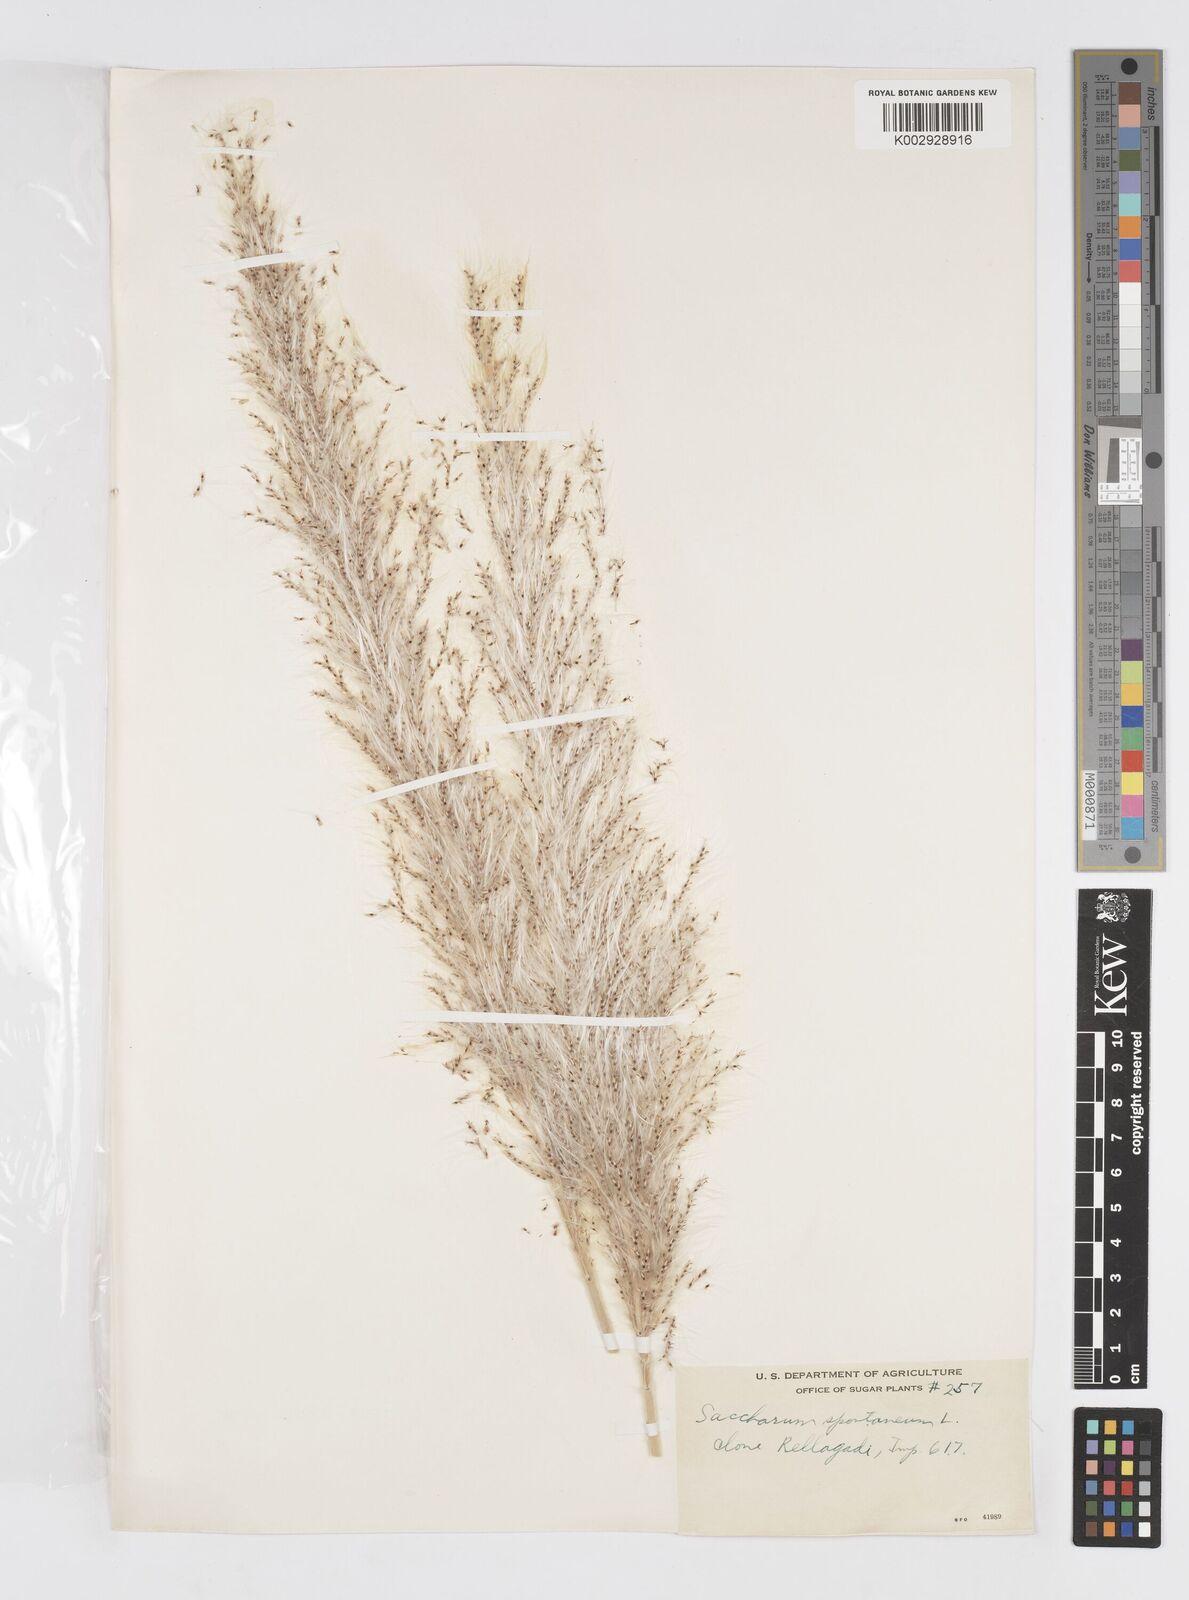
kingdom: Plantae
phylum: Tracheophyta
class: Liliopsida
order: Poales
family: Poaceae
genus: Saccharum
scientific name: Saccharum spontaneum
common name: Wild sugarcane
